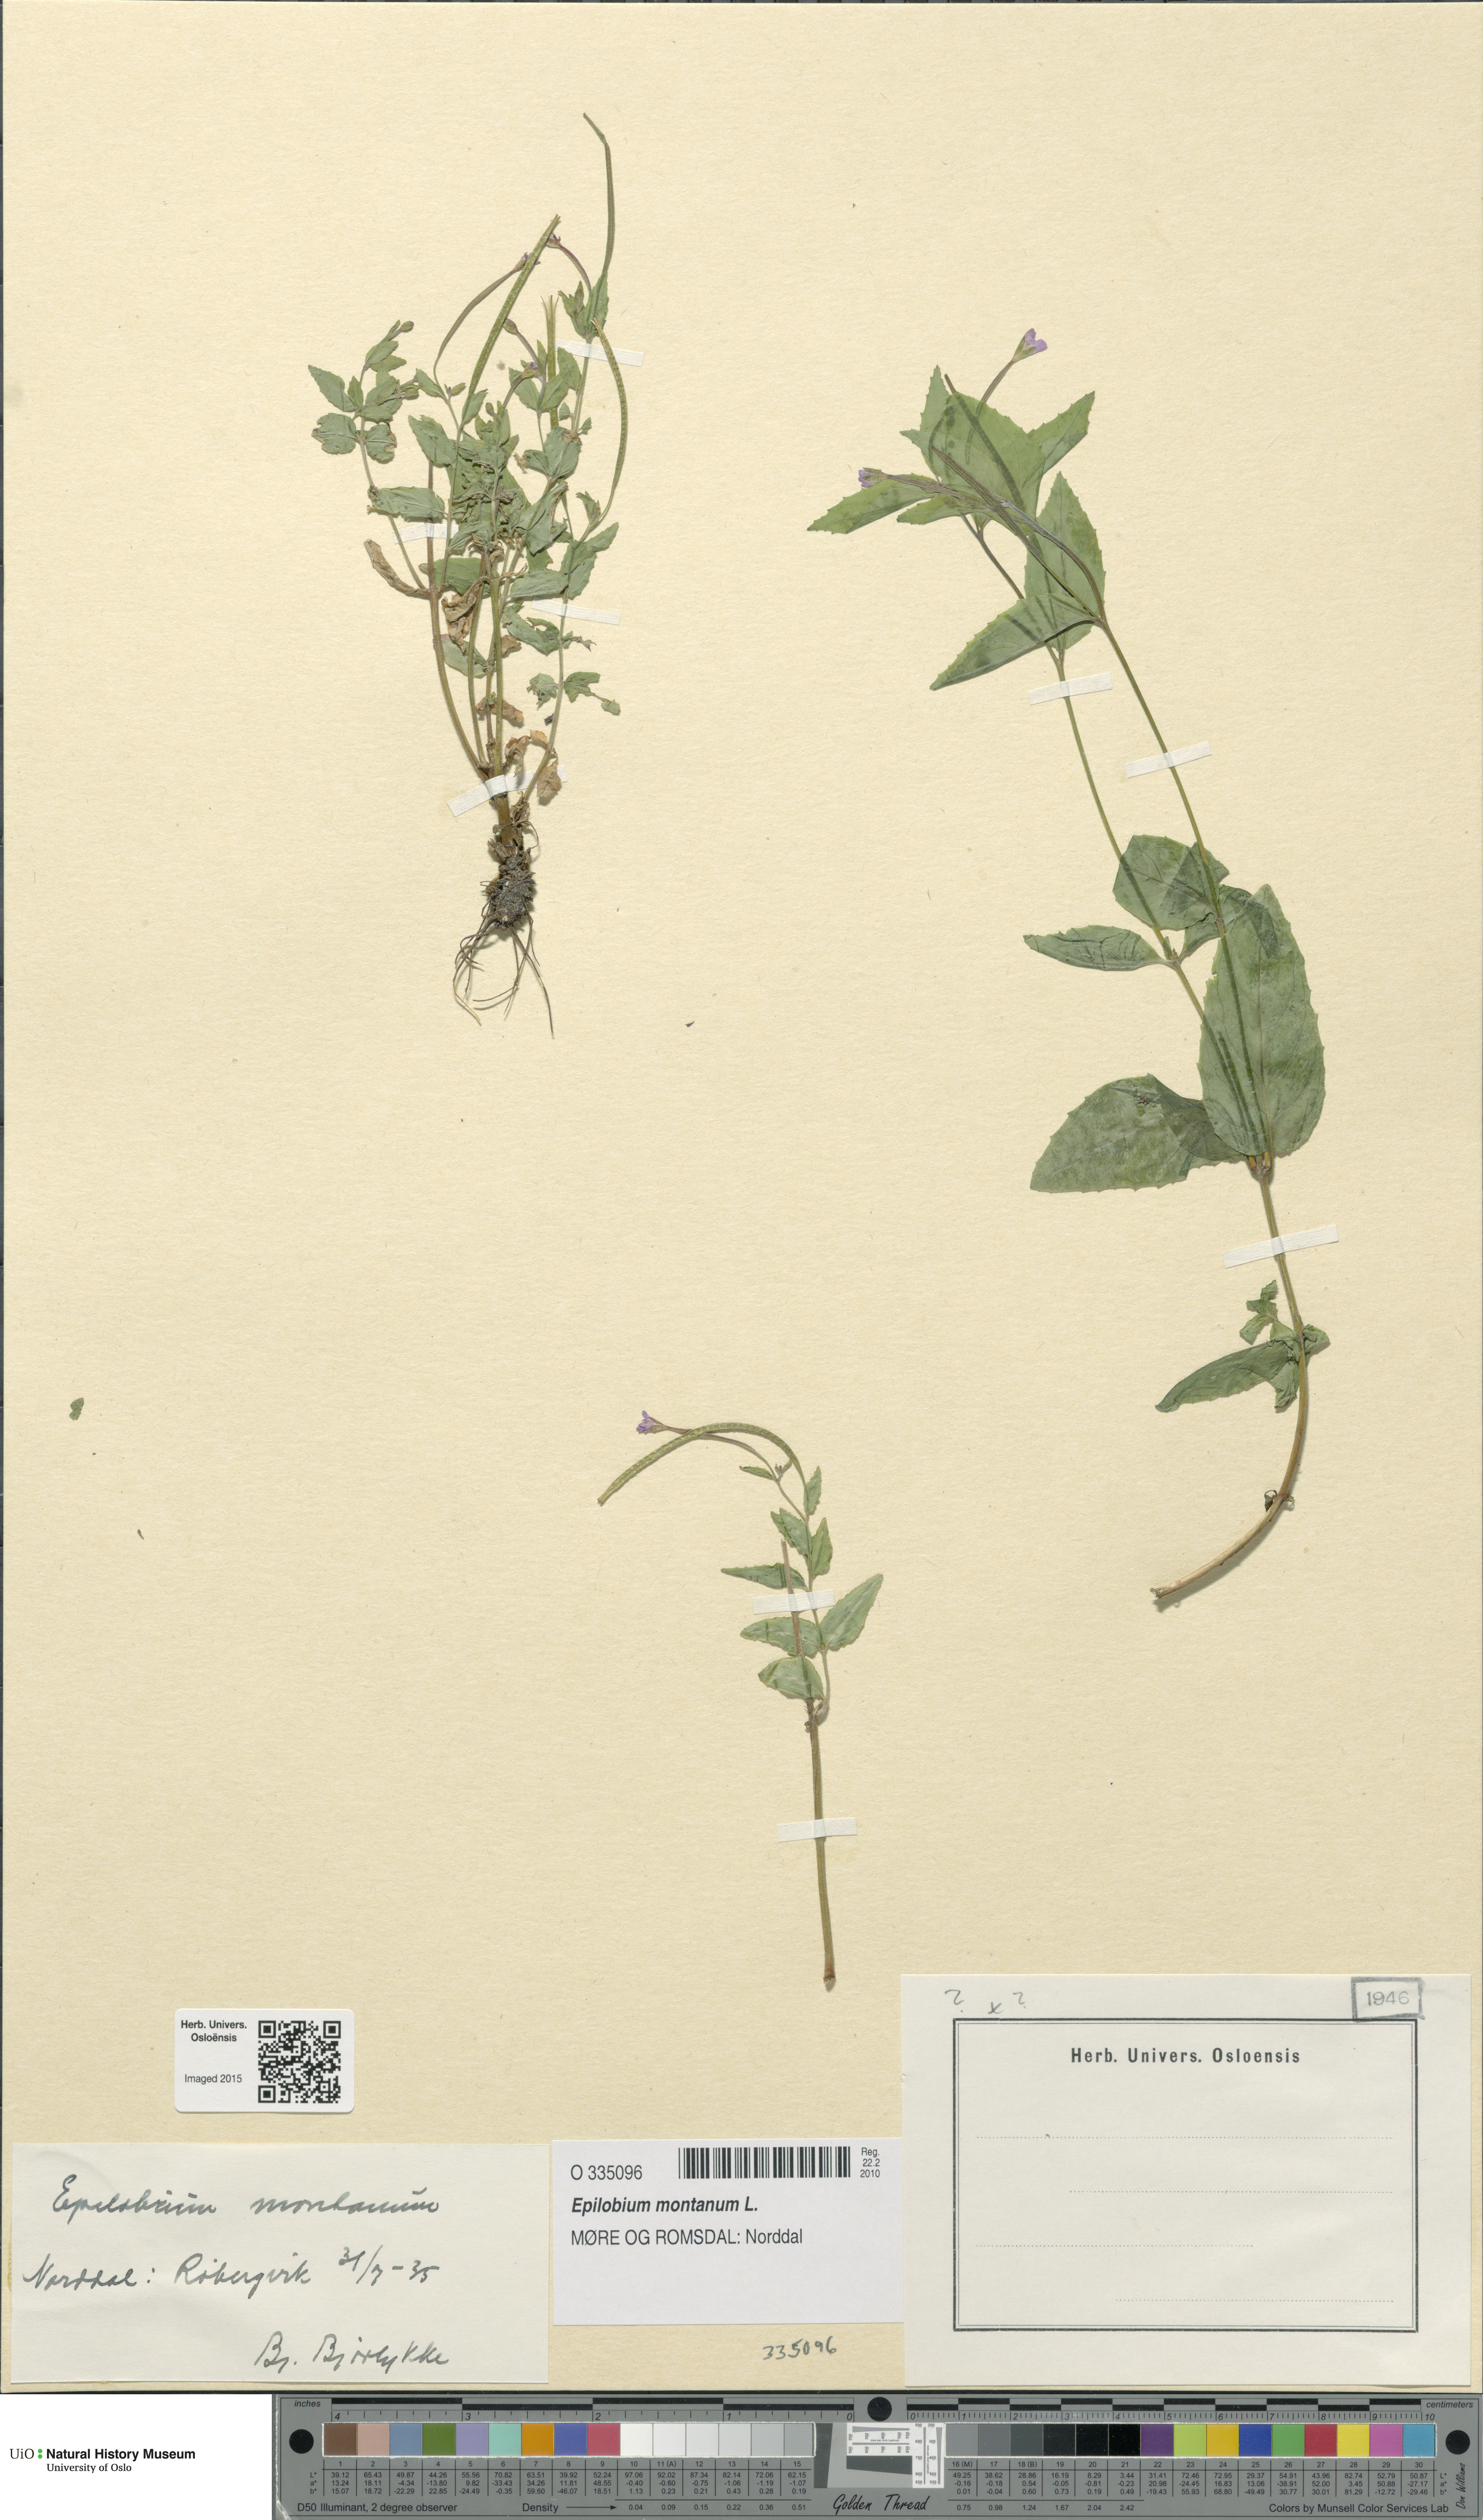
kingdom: Plantae
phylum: Tracheophyta
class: Magnoliopsida
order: Myrtales
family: Onagraceae
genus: Epilobium
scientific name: Epilobium montanum
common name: Broad-leaved willowherb
